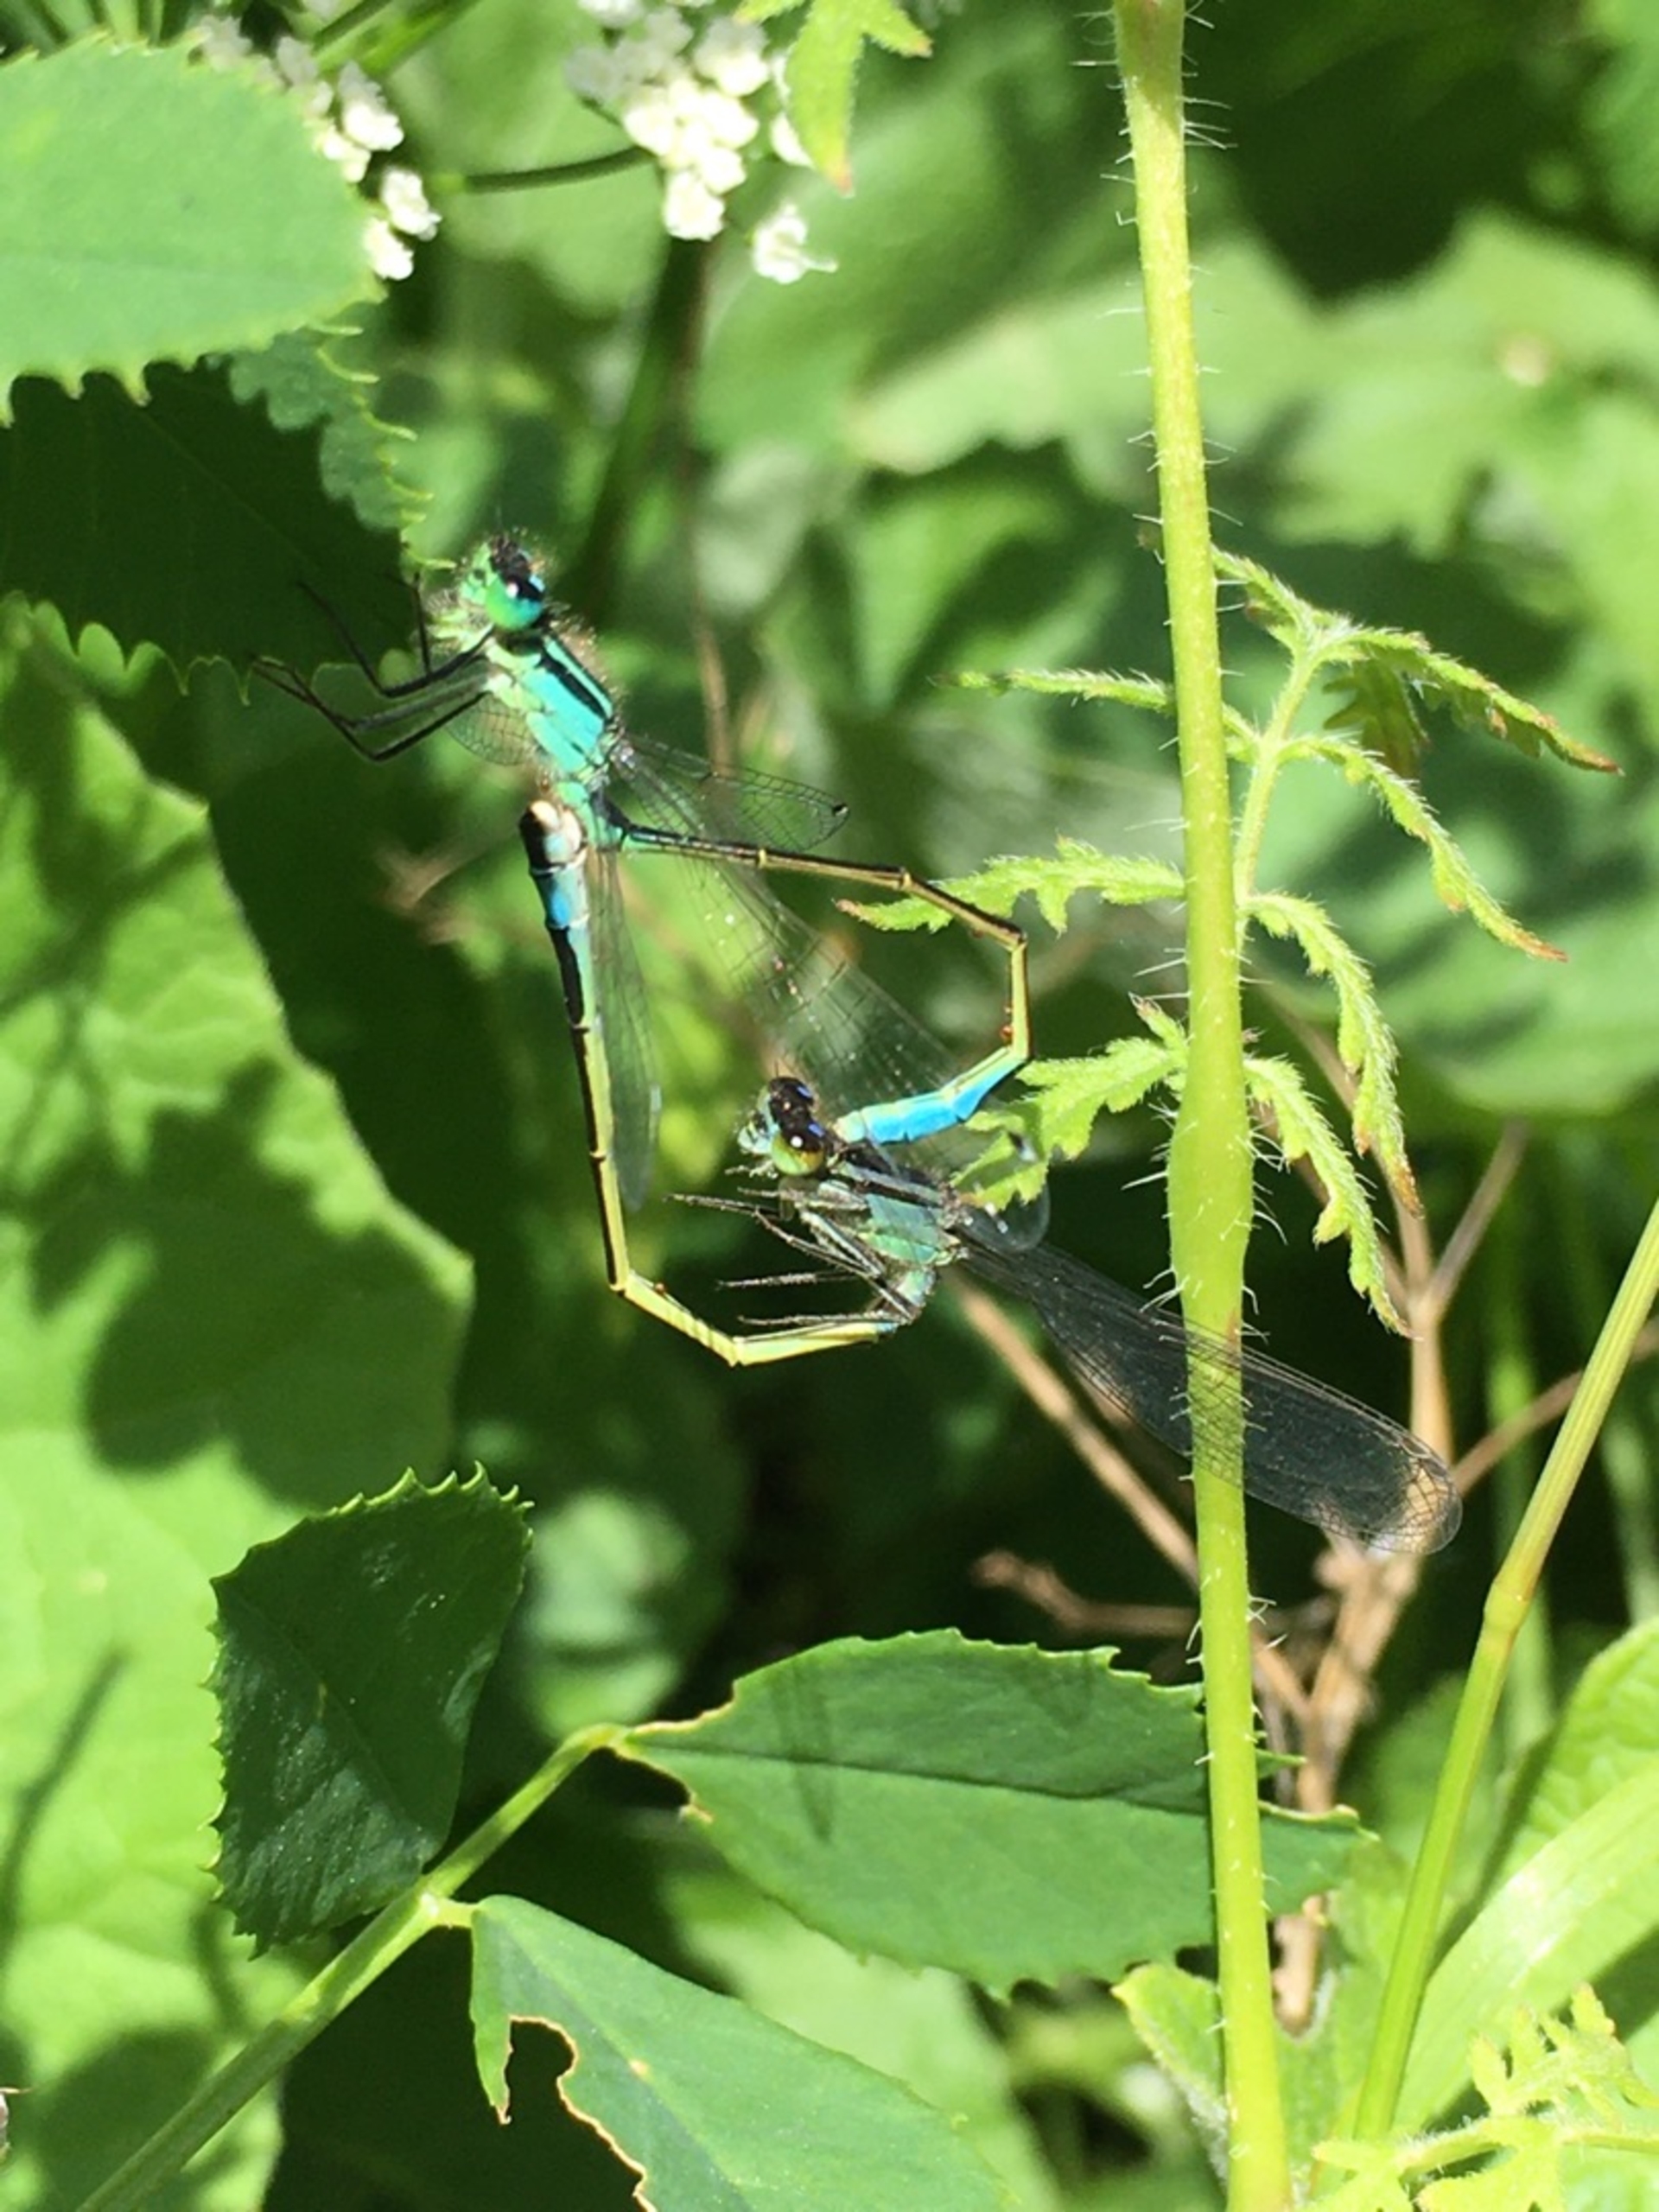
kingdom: Animalia
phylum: Arthropoda
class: Insecta
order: Odonata
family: Coenagrionidae
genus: Ischnura
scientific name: Ischnura elegans
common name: Stor farvevandnymfe
